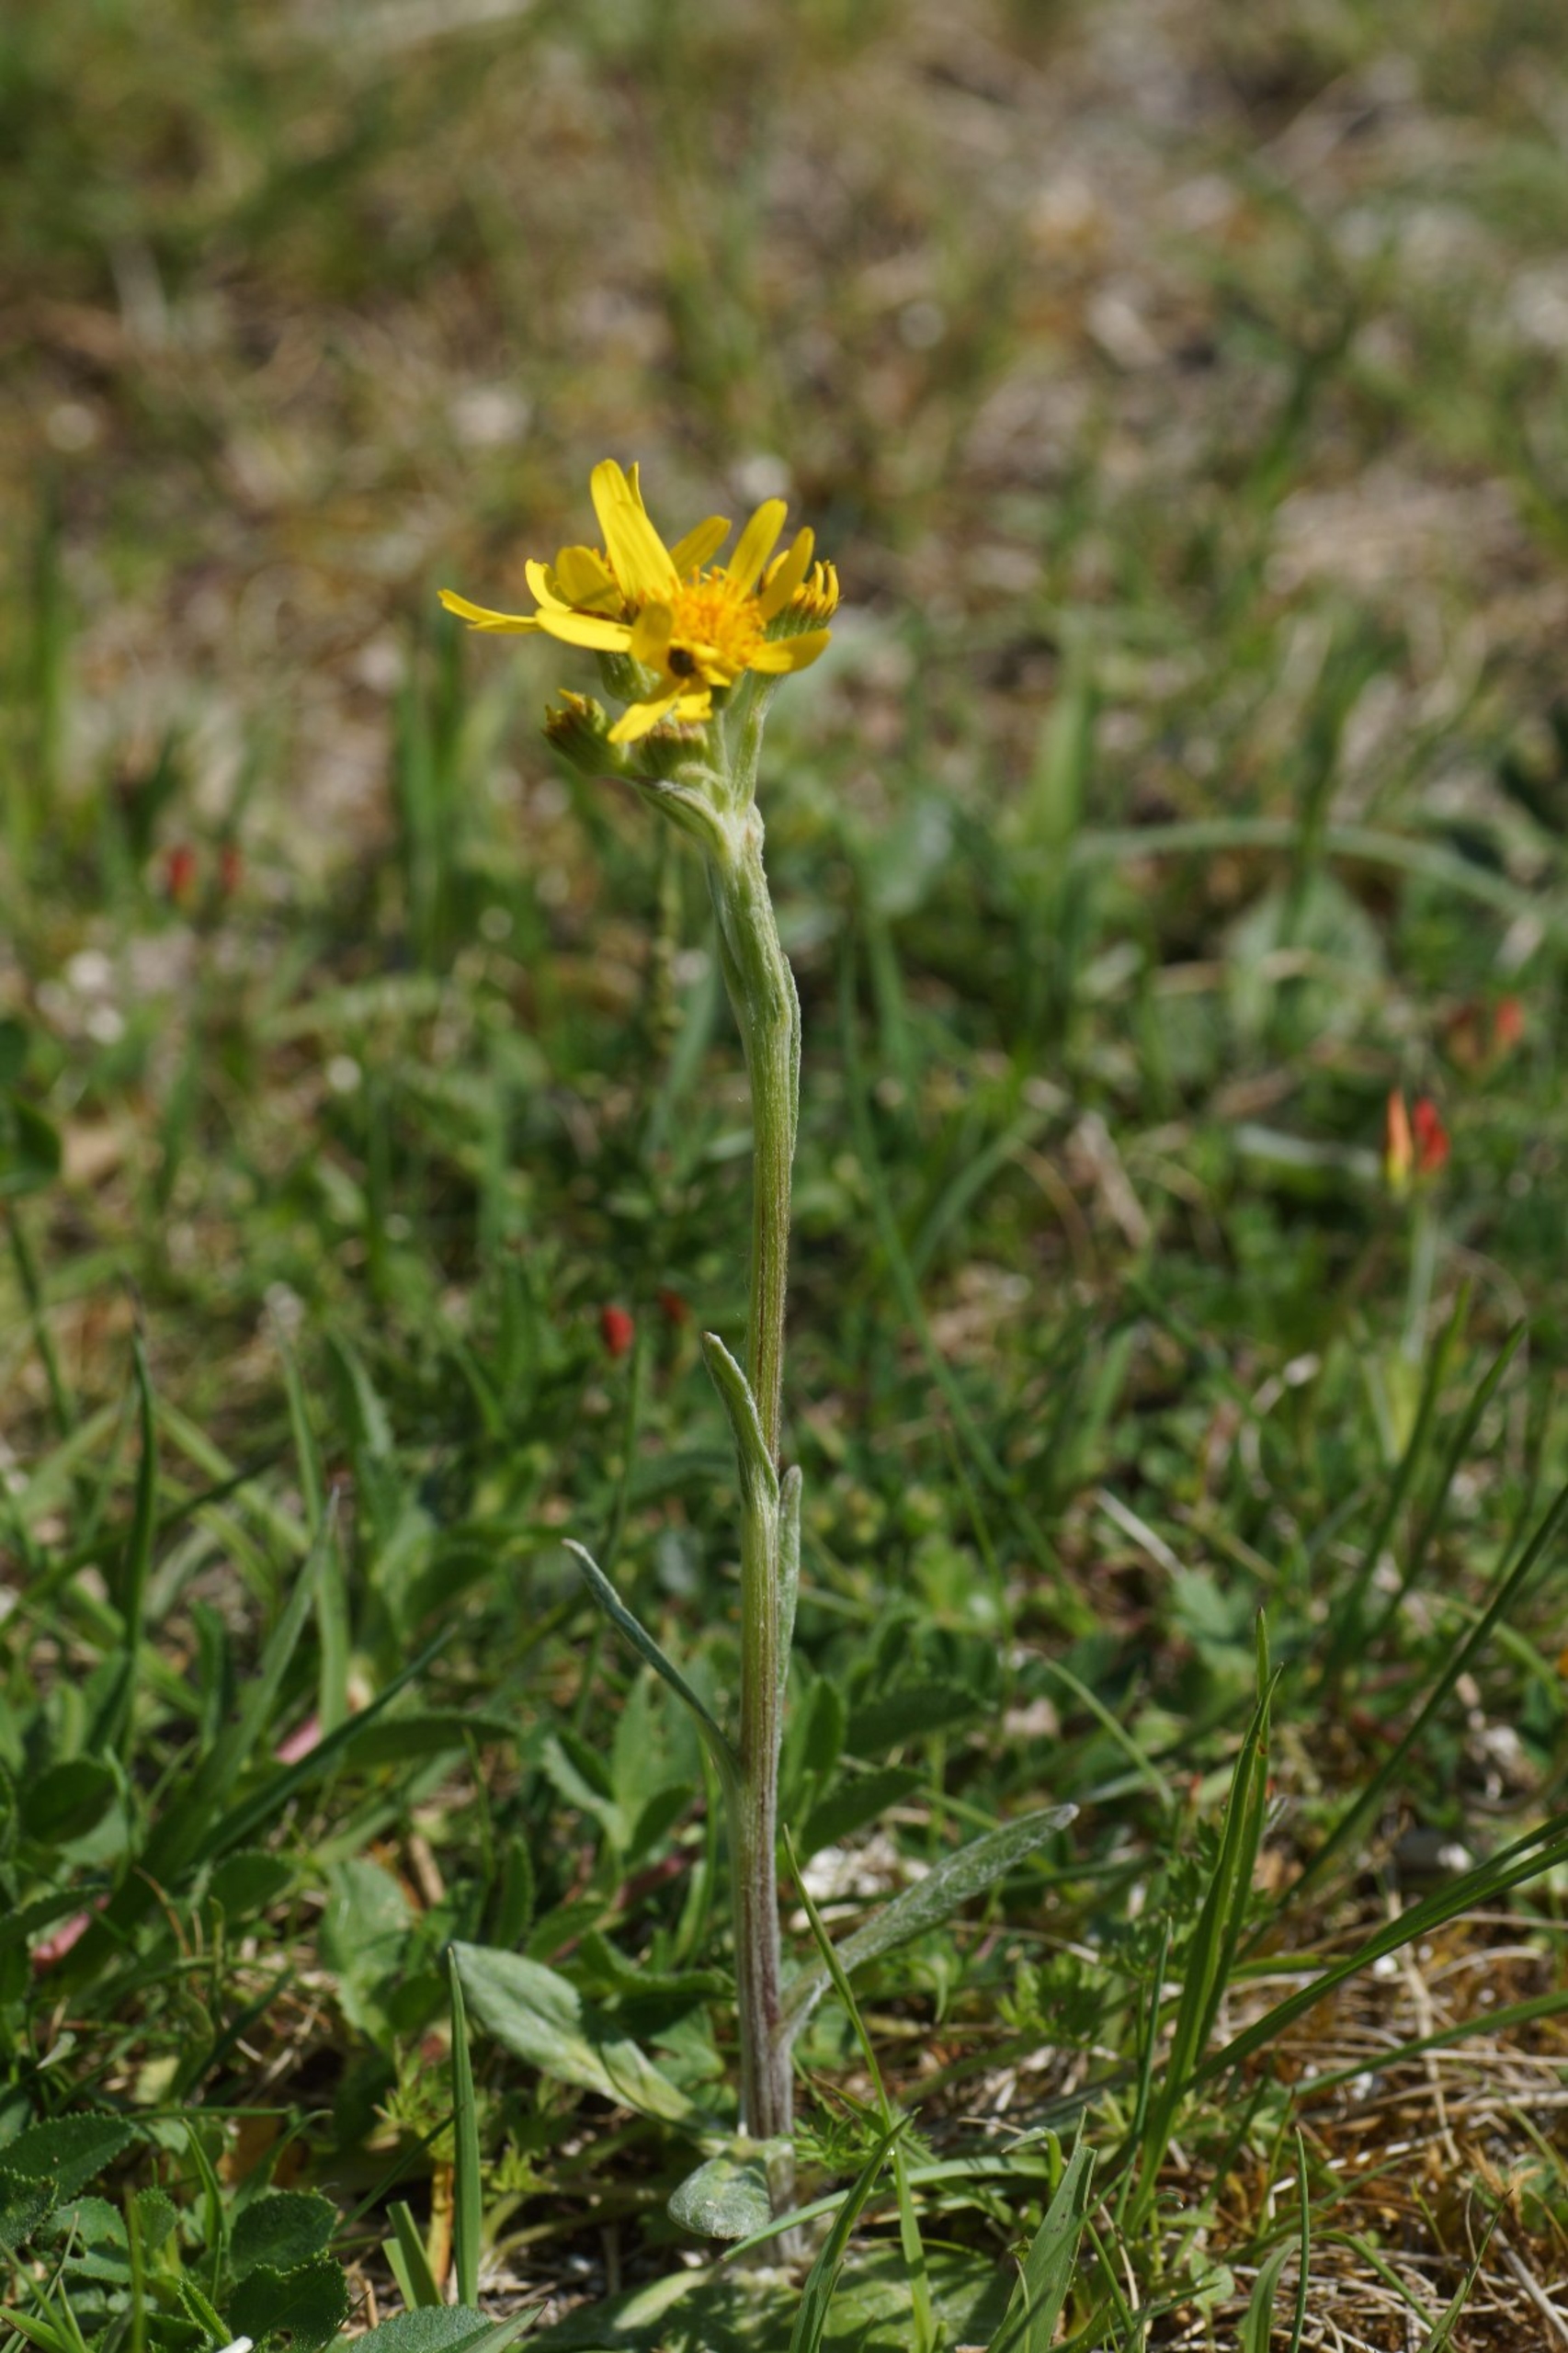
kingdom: Plantae
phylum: Tracheophyta
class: Magnoliopsida
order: Asterales
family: Asteraceae
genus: Tephroseris
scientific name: Tephroseris integrifolia
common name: Bakke-fnokurt
